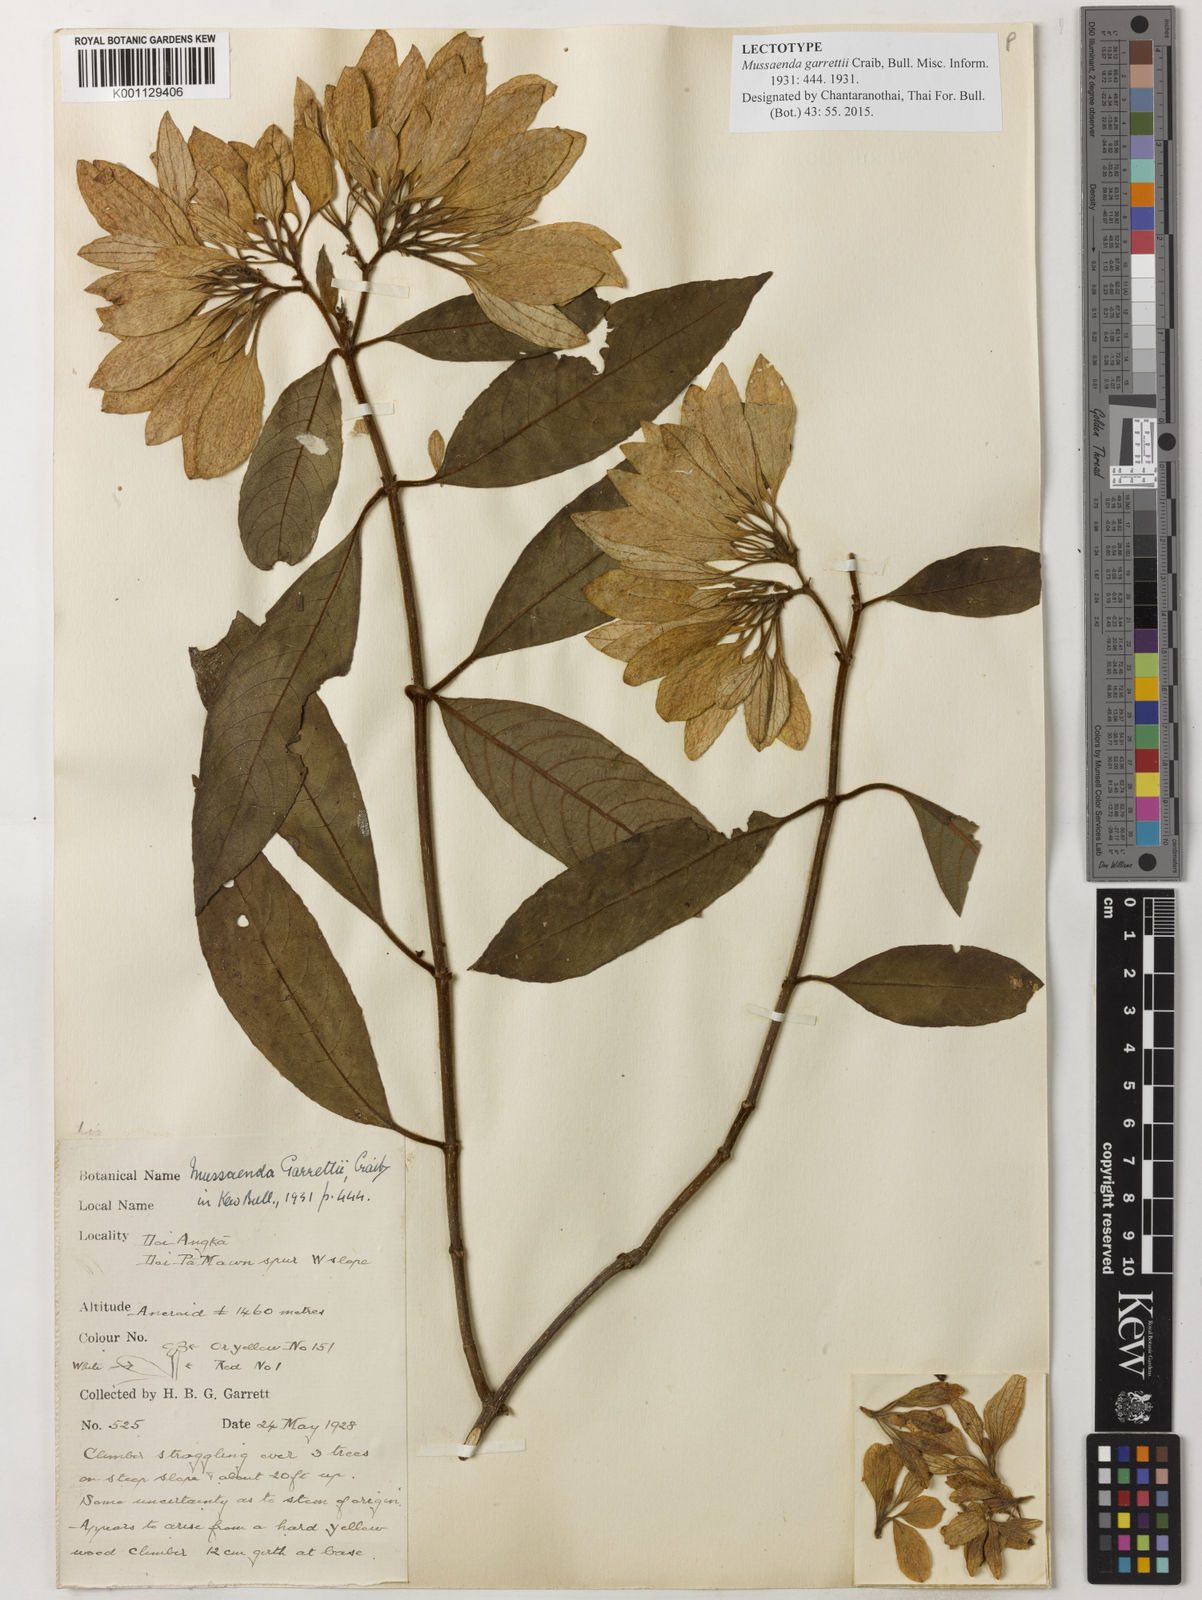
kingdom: Plantae
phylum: Tracheophyta
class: Magnoliopsida
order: Gentianales
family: Rubiaceae
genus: Mussaenda
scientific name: Mussaenda garrettii
